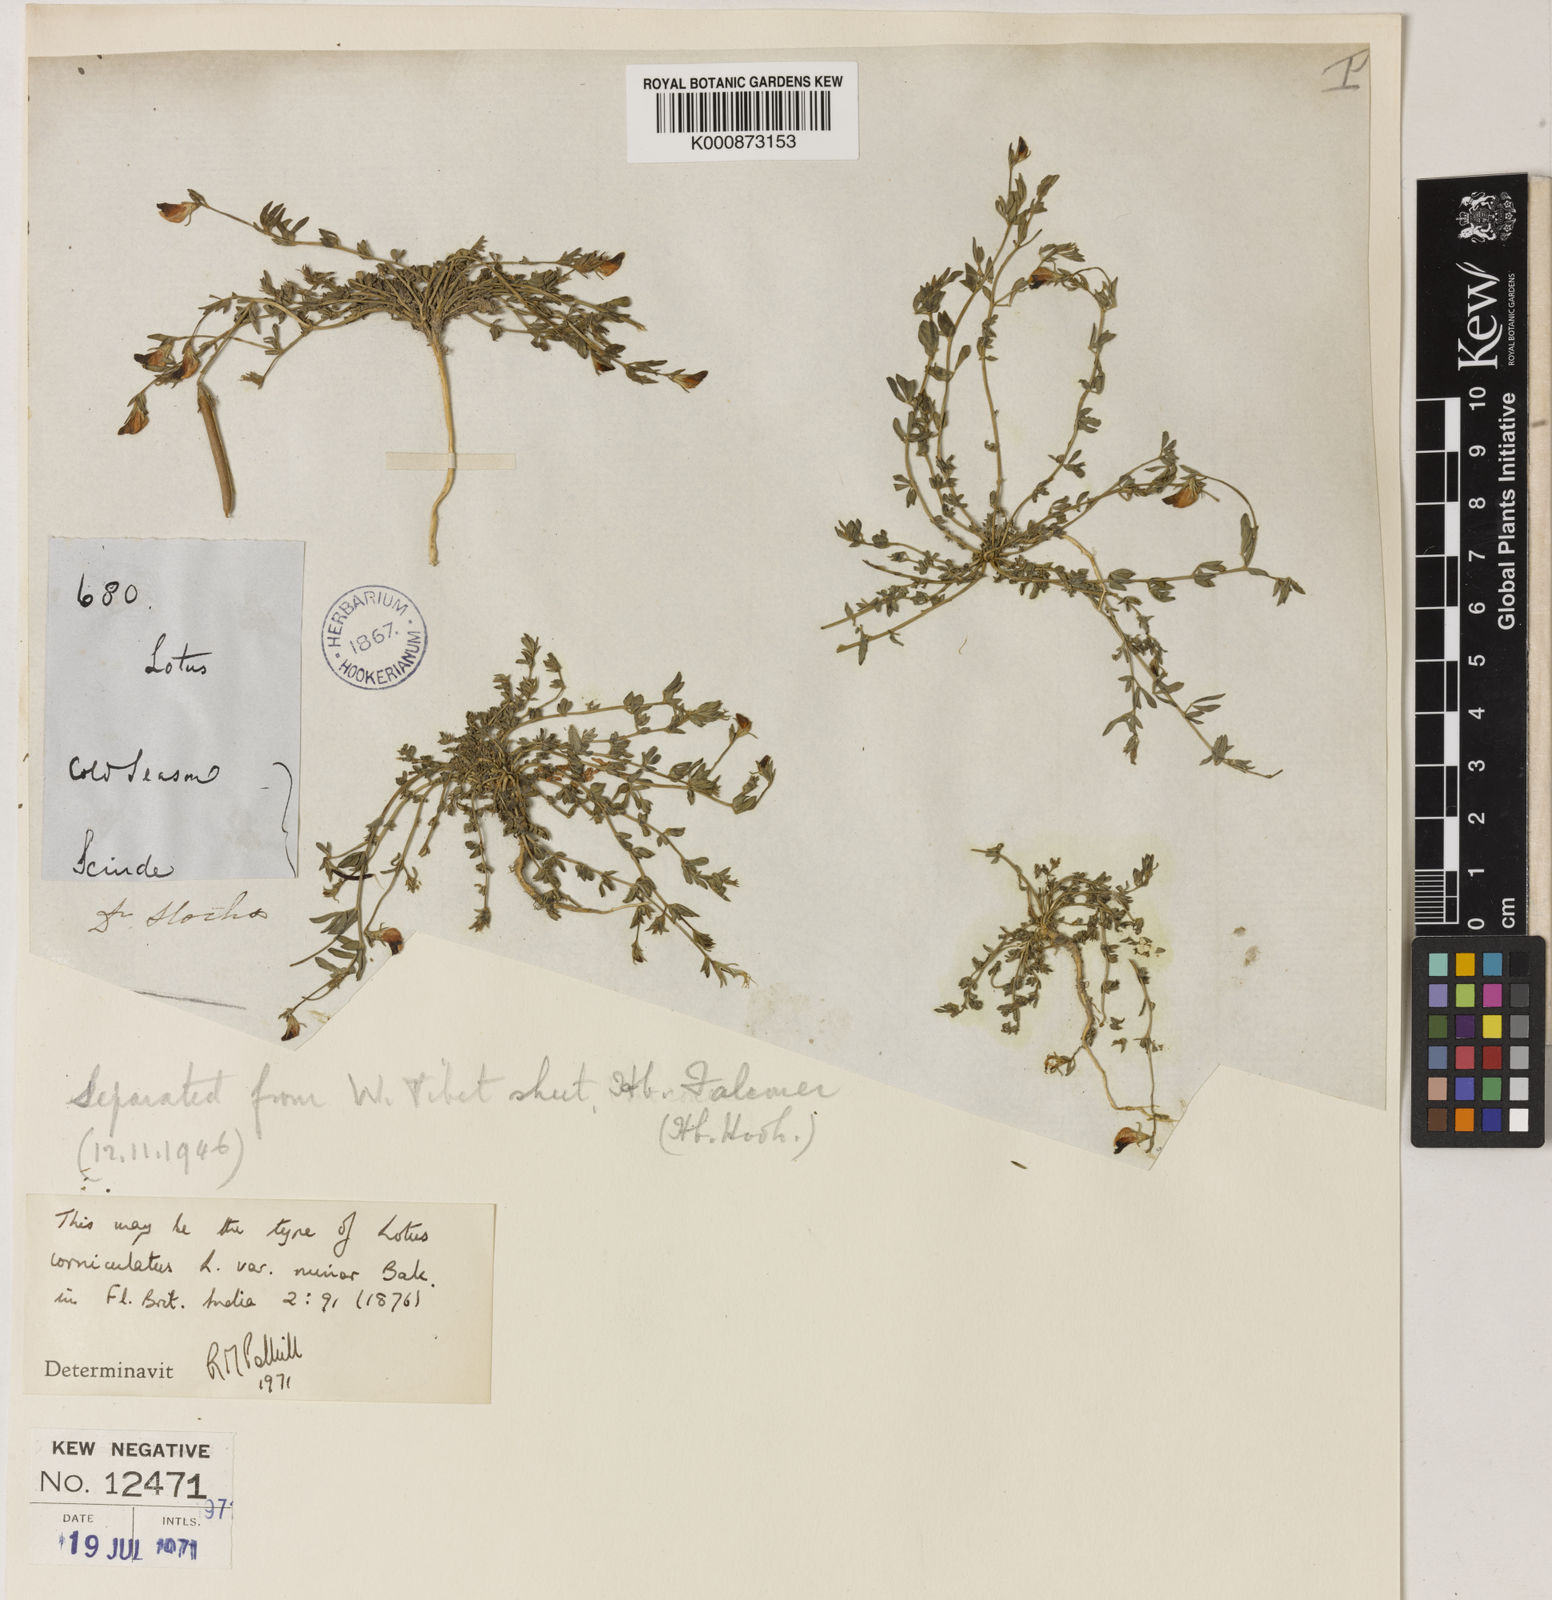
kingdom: Plantae
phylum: Tracheophyta
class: Magnoliopsida
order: Fabales
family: Fabaceae
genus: Lotus
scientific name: Lotus corniculatus
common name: Common bird's-foot-trefoil
